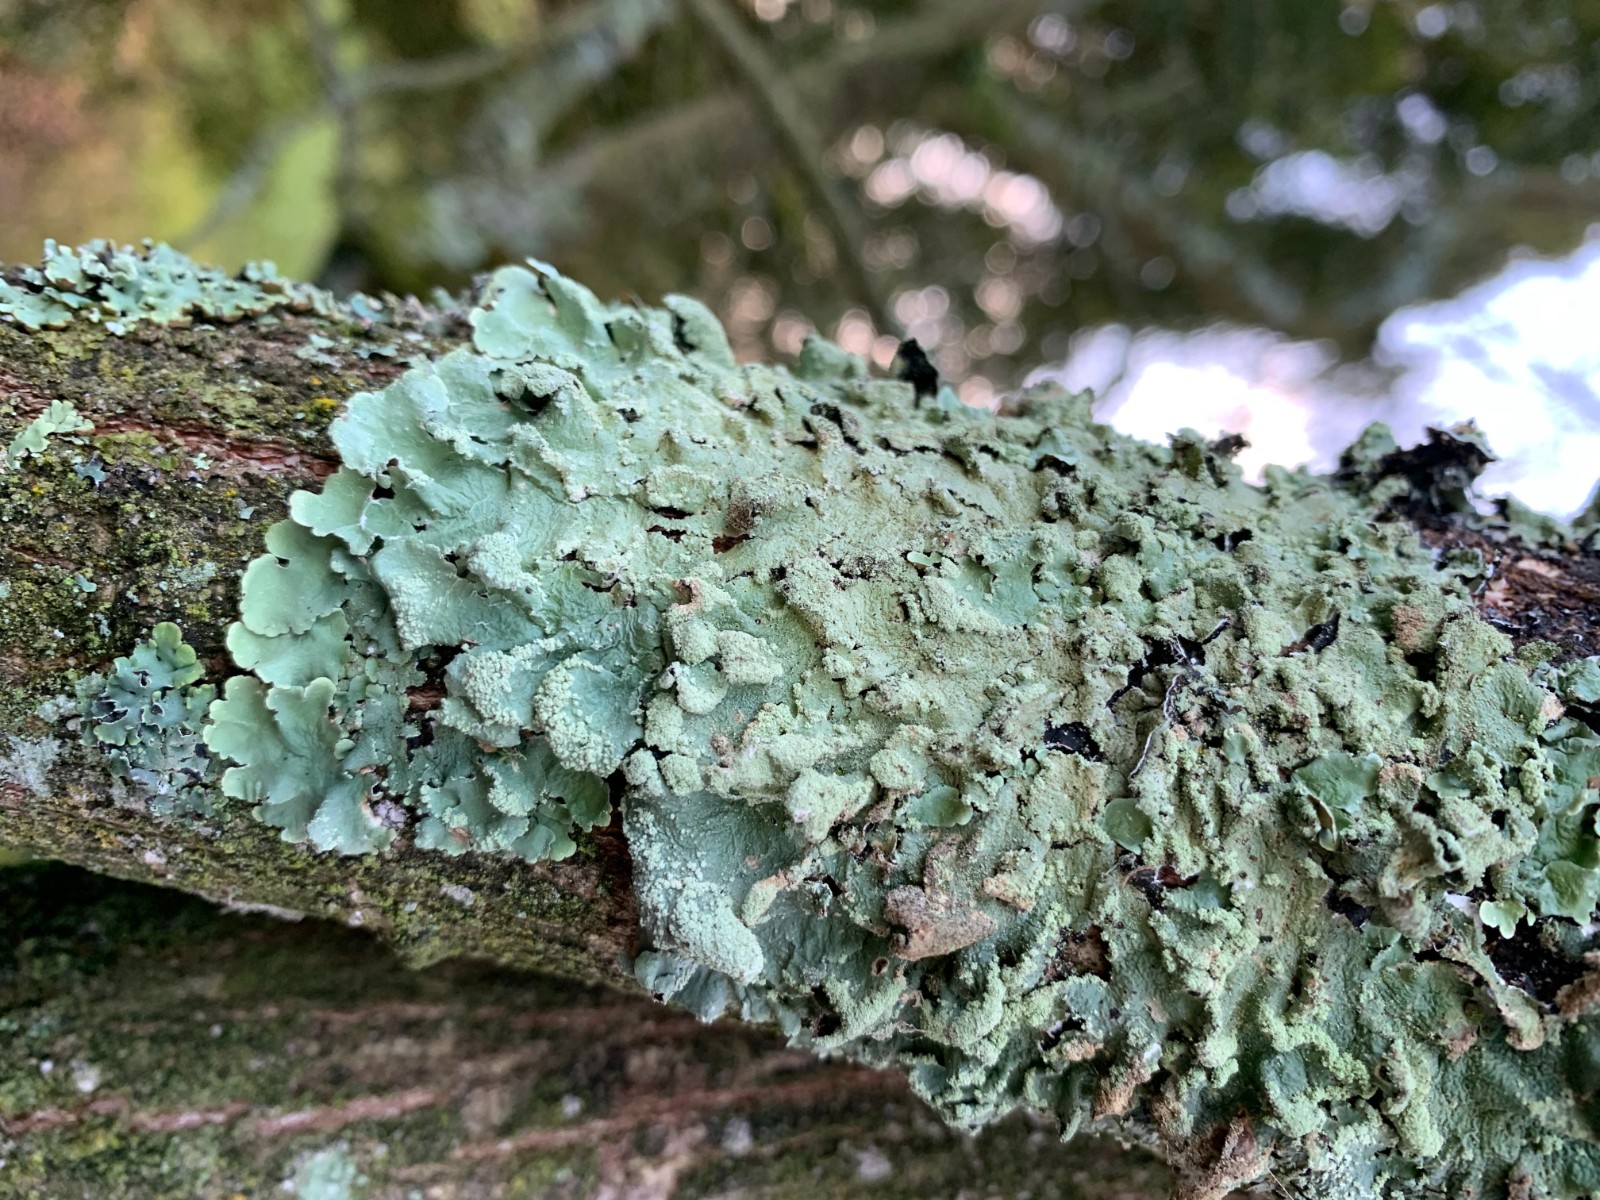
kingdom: Fungi
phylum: Ascomycota
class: Lecanoromycetes
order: Lecanorales
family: Parmeliaceae
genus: Flavoparmelia
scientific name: Flavoparmelia caperata
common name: gulgrøn skållav
